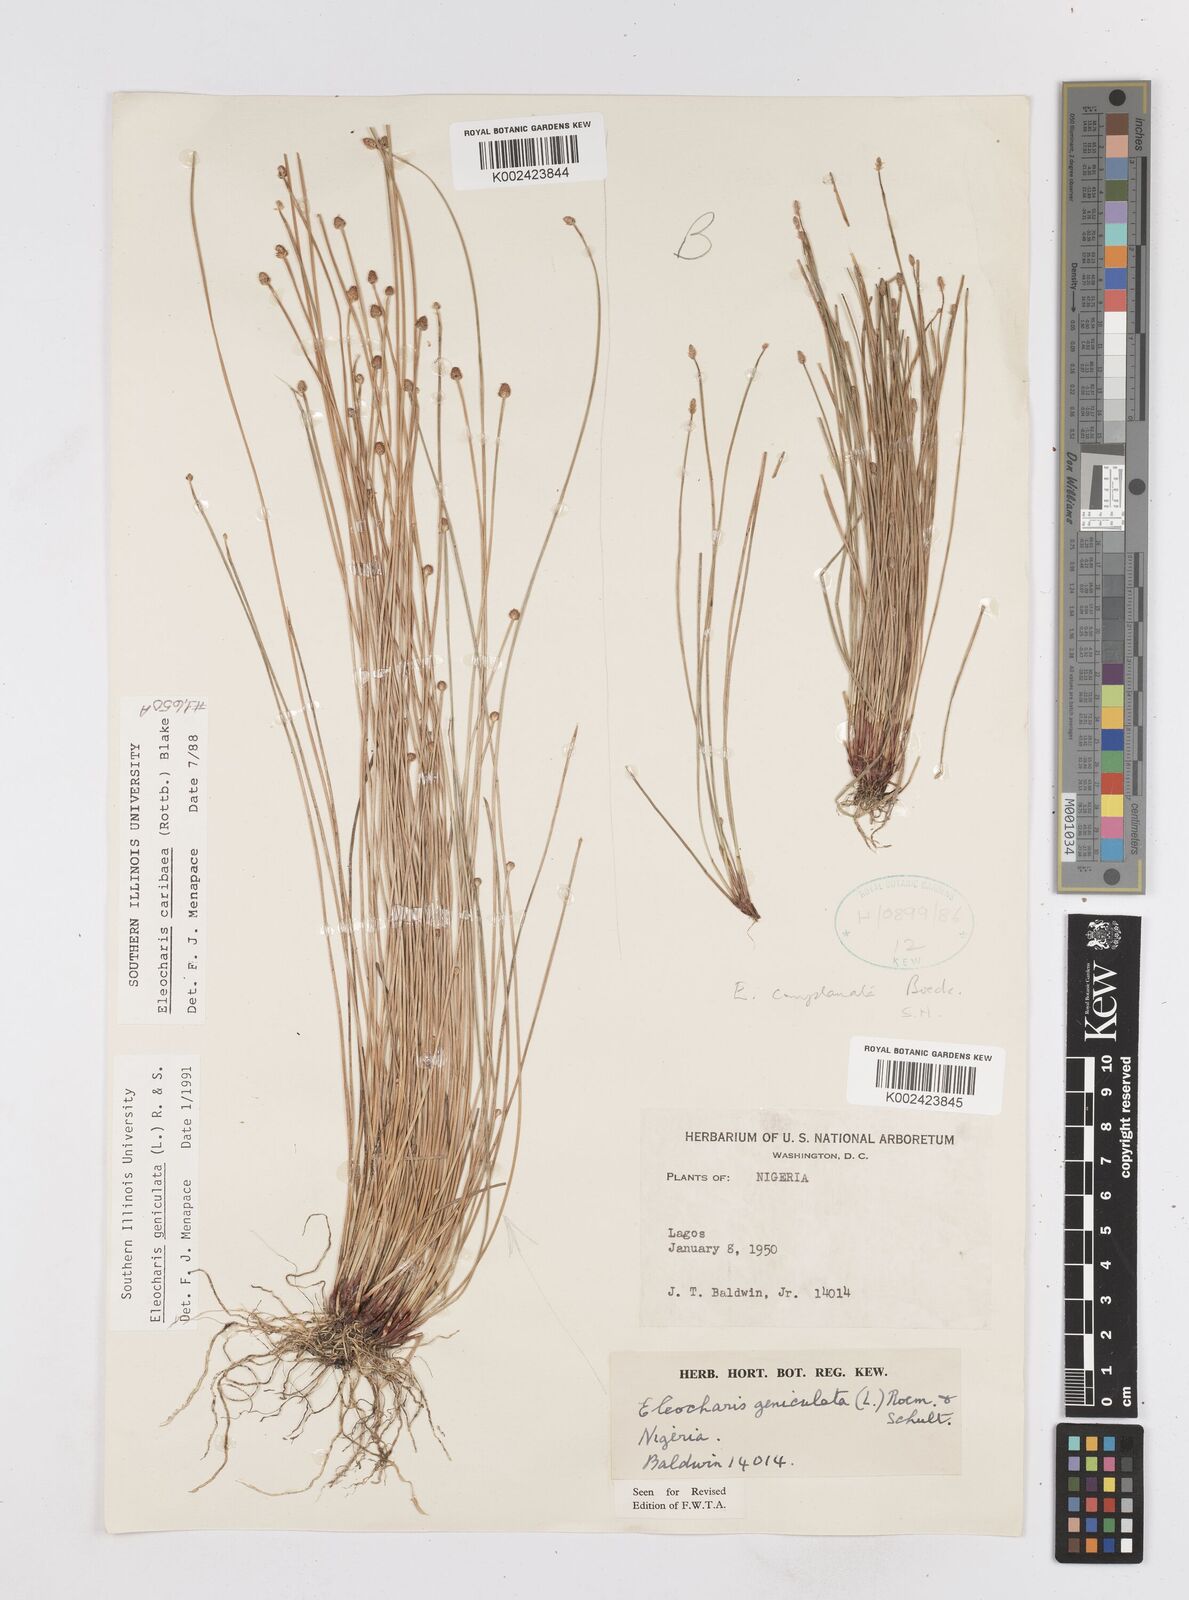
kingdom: Plantae
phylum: Tracheophyta
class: Liliopsida
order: Poales
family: Cyperaceae
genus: Eleocharis
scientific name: Eleocharis geniculata
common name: Canada spikesedge
